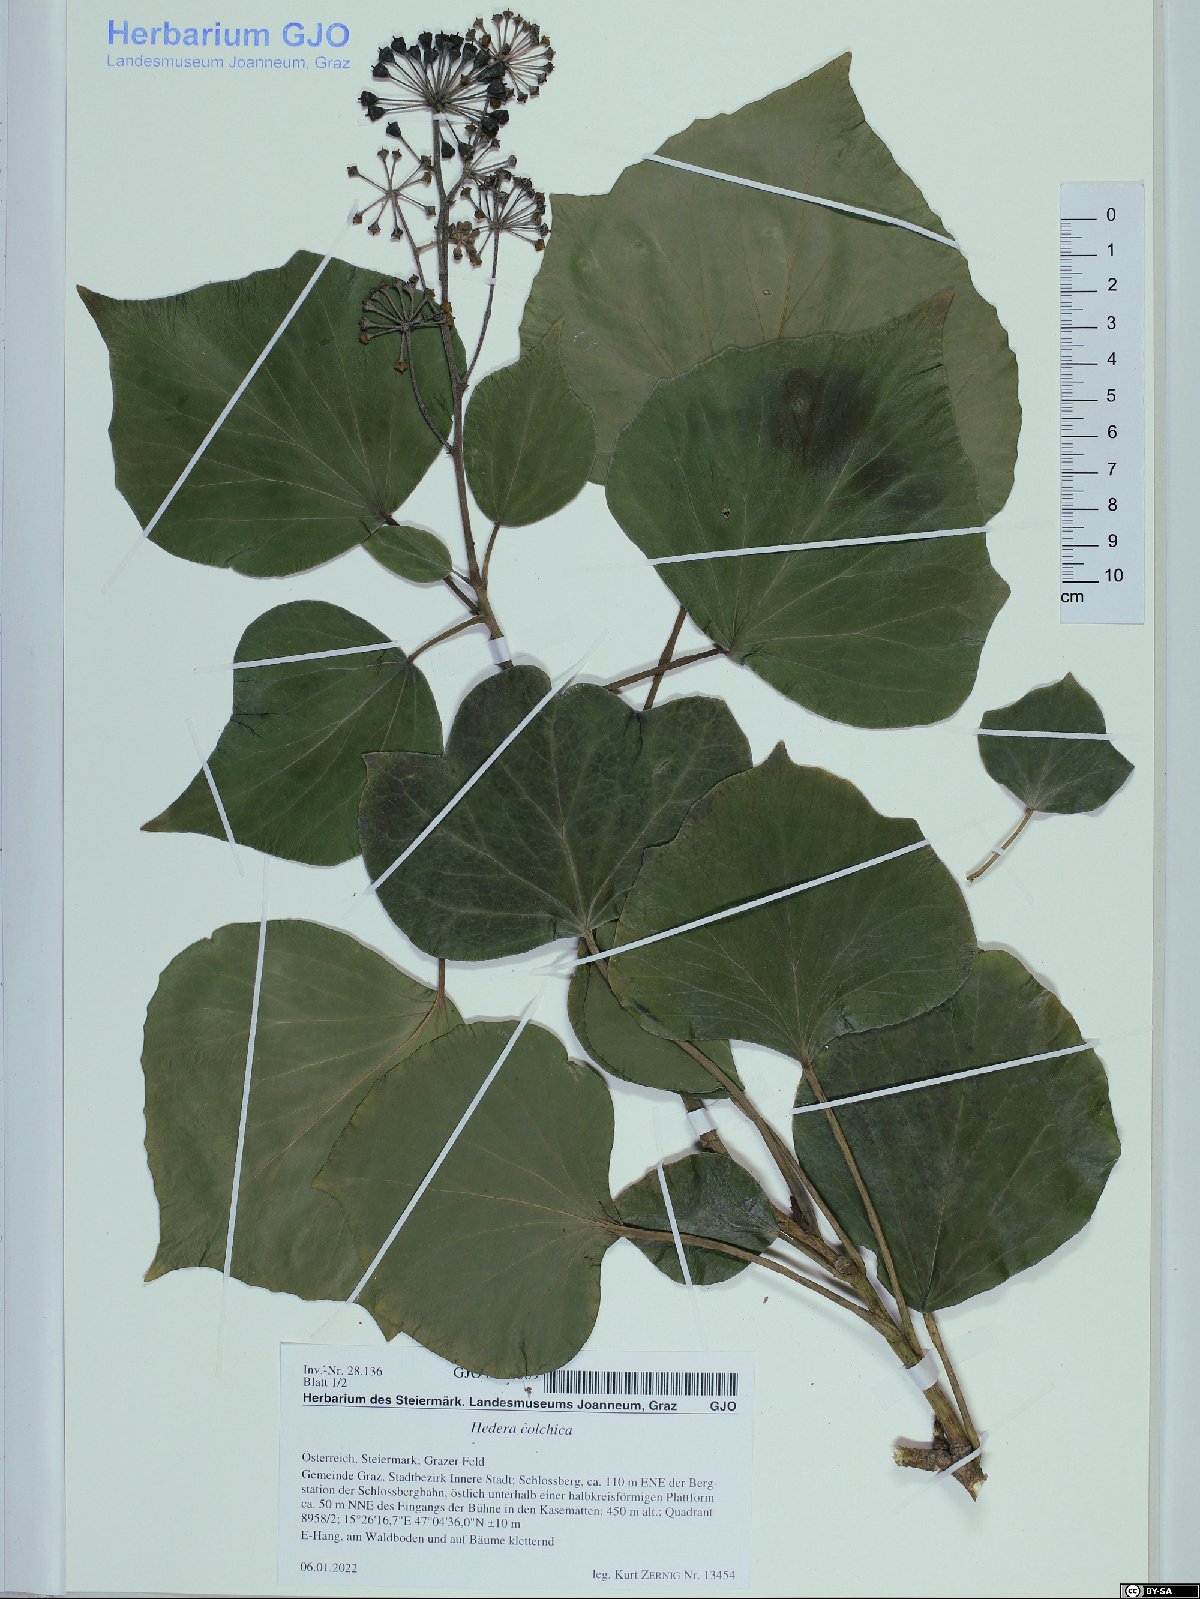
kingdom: Plantae
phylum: Tracheophyta
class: Magnoliopsida
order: Apiales
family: Araliaceae
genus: Hedera
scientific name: Hedera colchica
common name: Persian ivy
